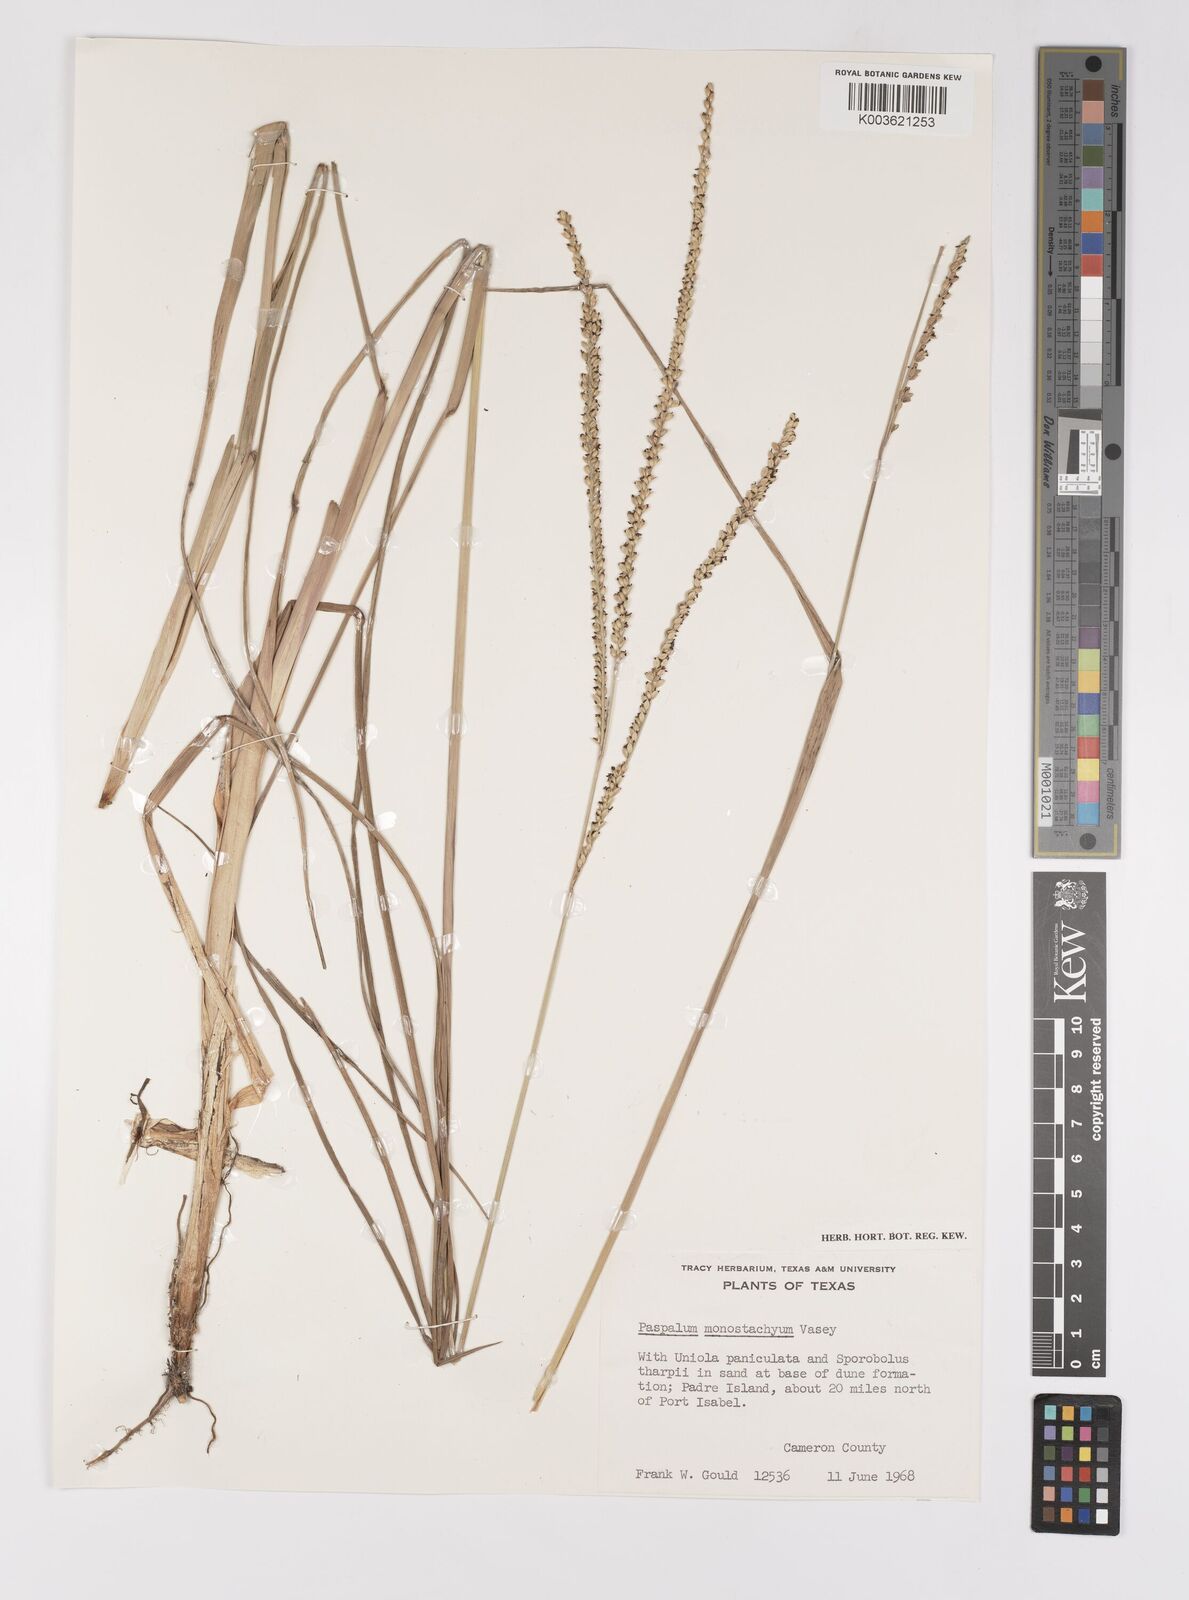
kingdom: Plantae
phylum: Tracheophyta
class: Liliopsida
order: Poales
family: Poaceae
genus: Paspalum
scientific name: Paspalum monostachyum
